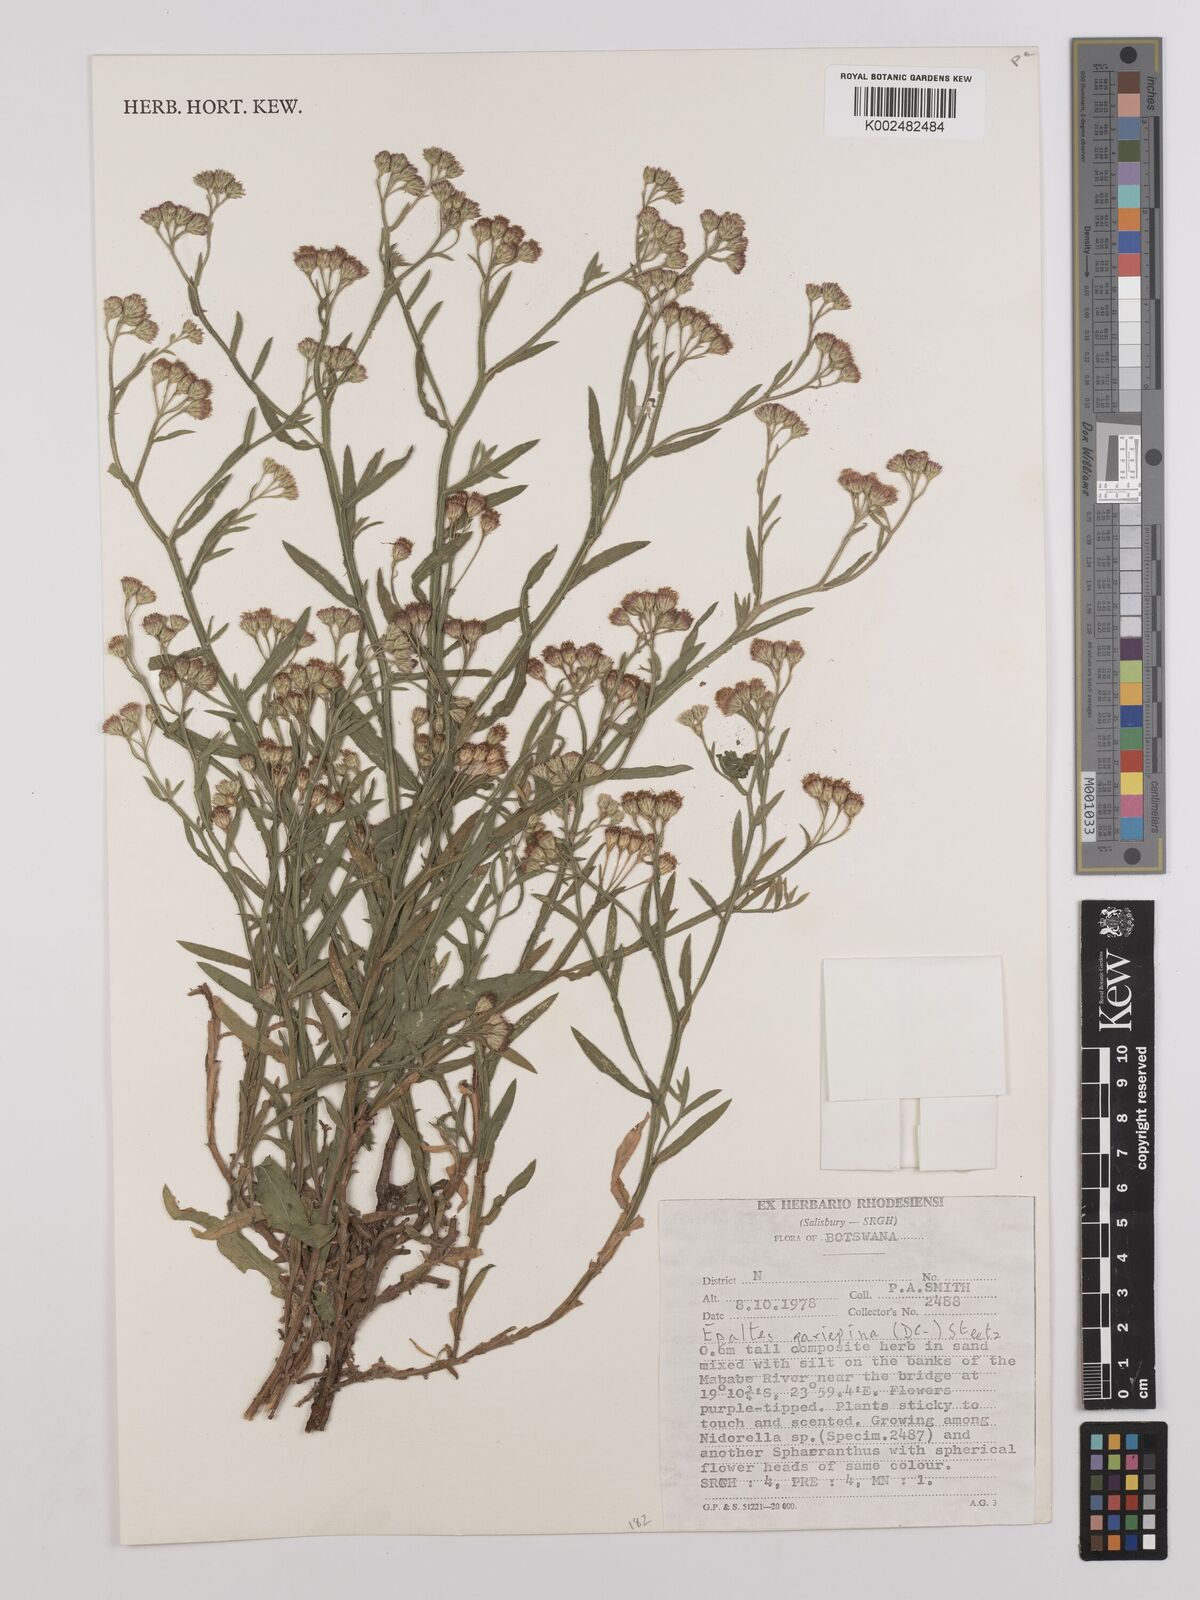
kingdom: Plantae
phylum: Tracheophyta
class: Magnoliopsida
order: Asterales
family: Asteraceae
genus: Litogyne
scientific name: Litogyne gariepina
